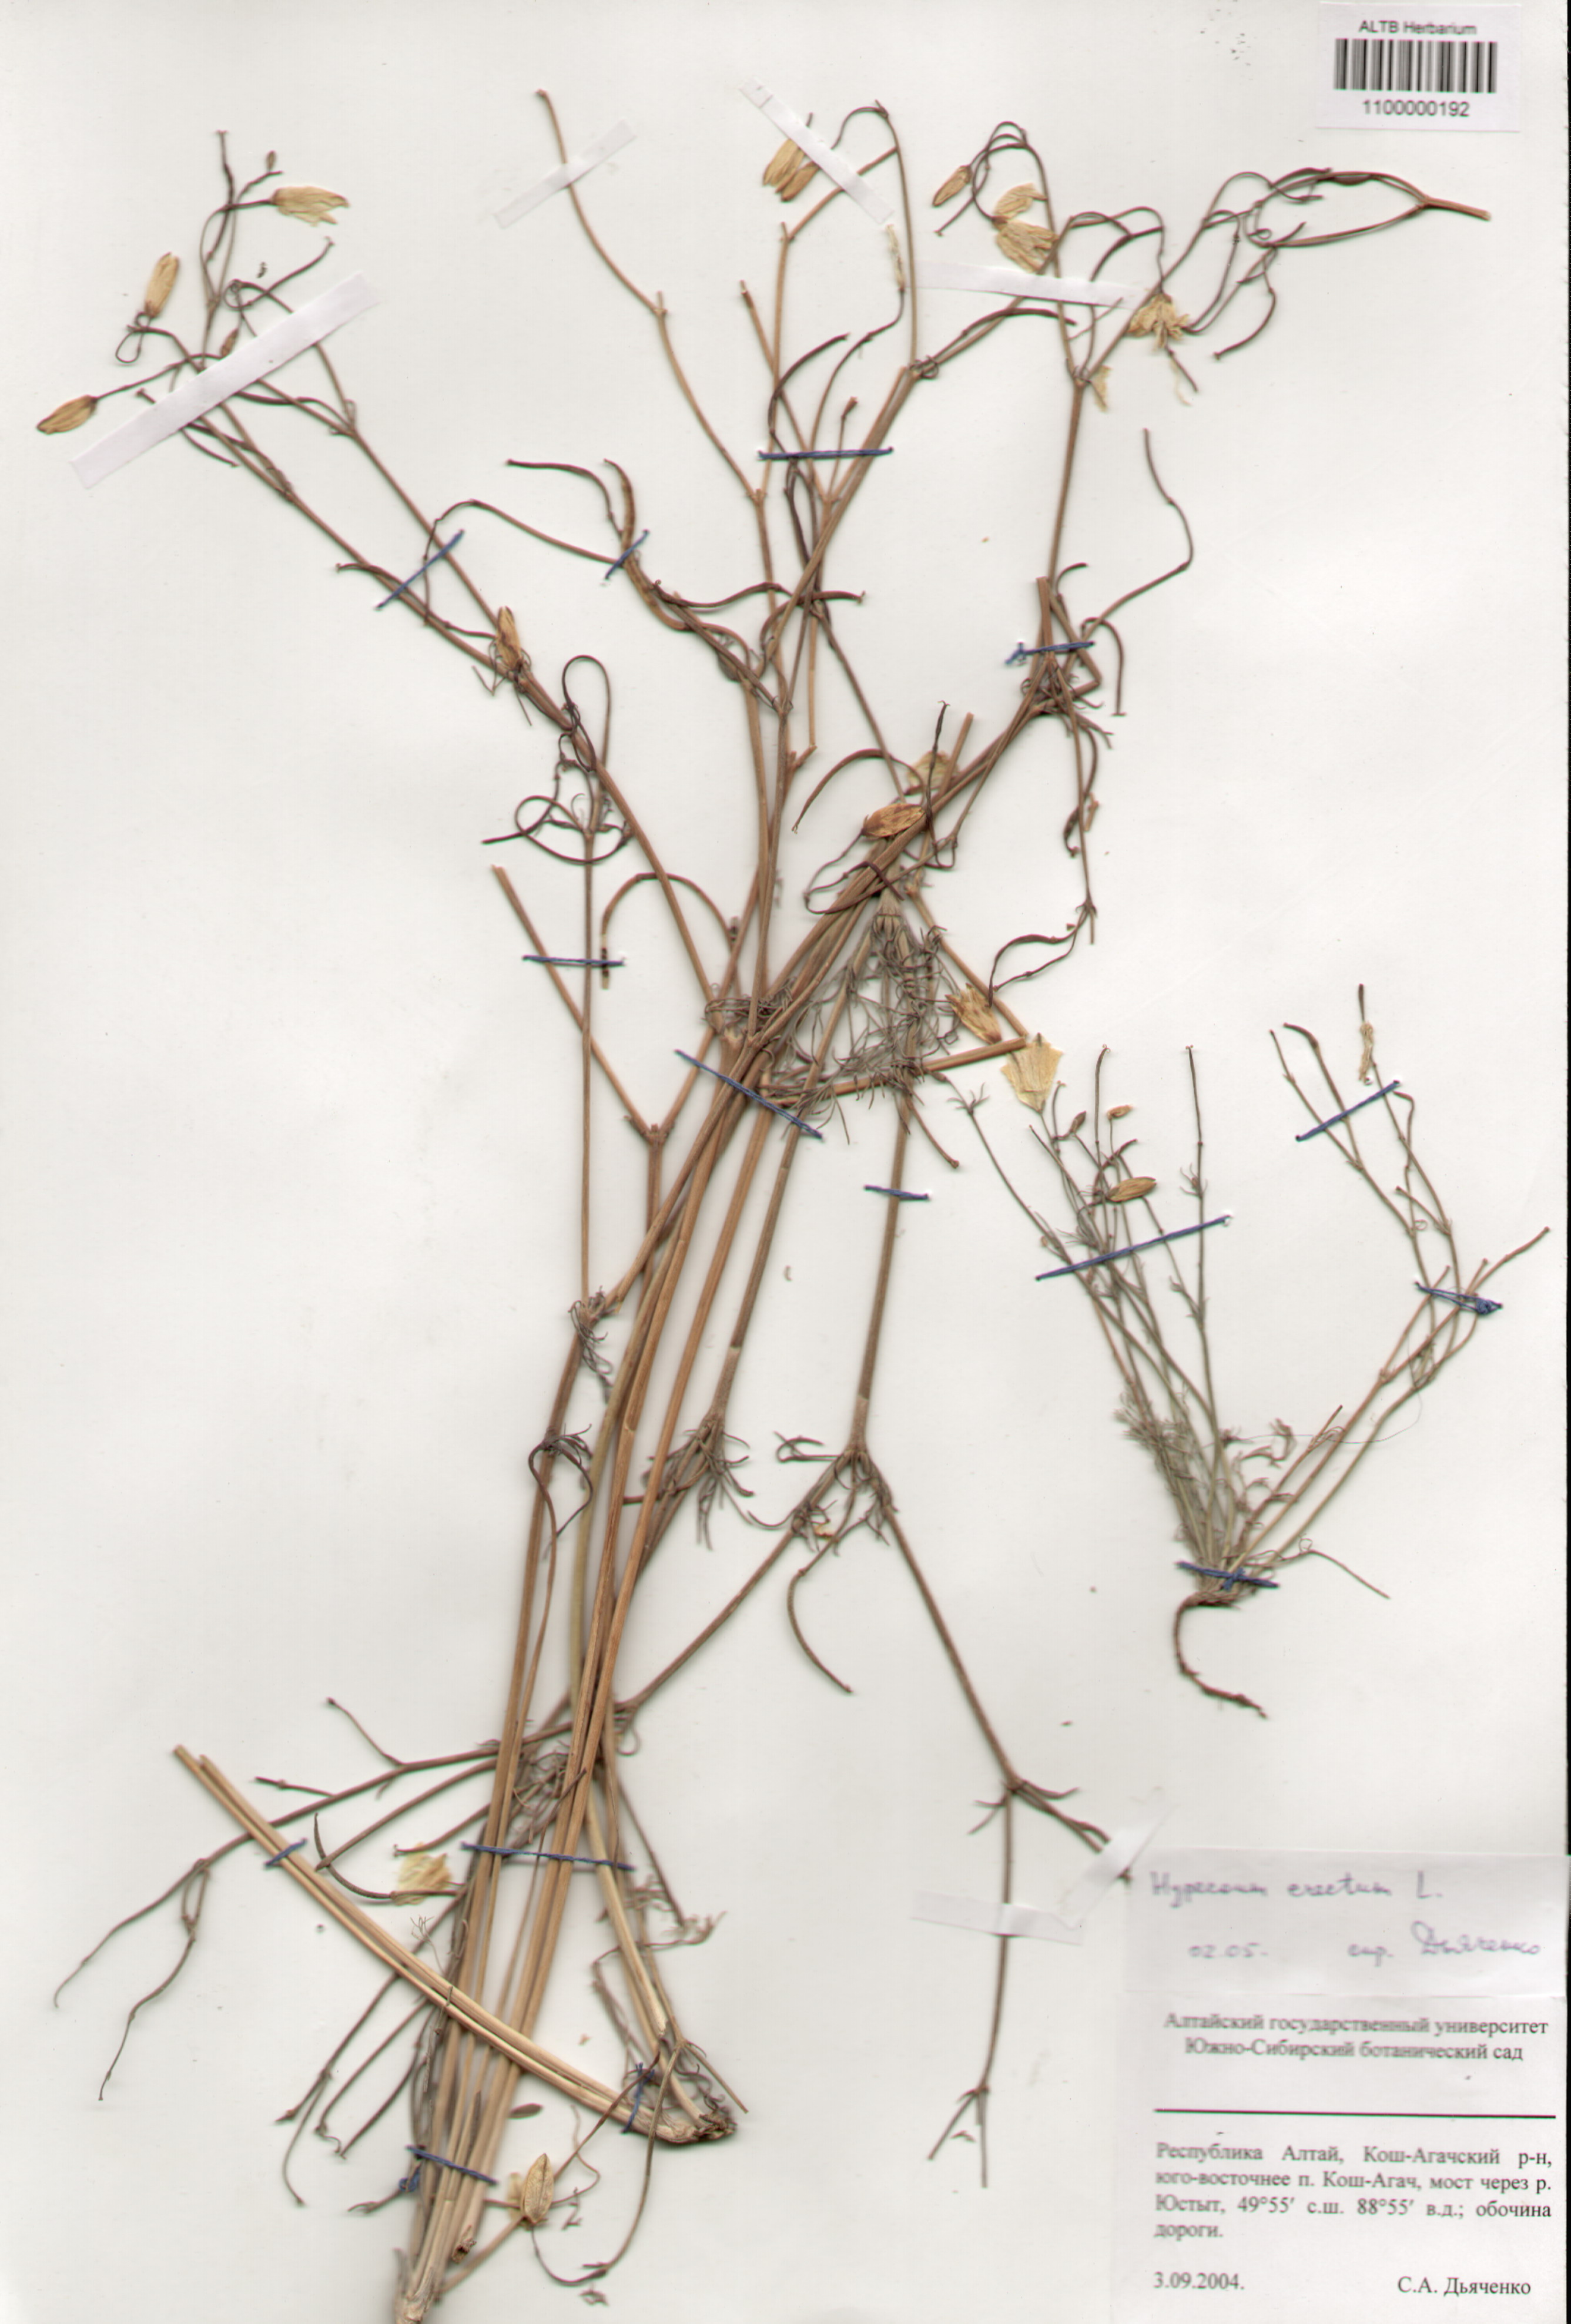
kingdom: Plantae
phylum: Tracheophyta
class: Magnoliopsida
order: Ranunculales
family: Papaveraceae
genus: Hypecoum
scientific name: Hypecoum erectum
